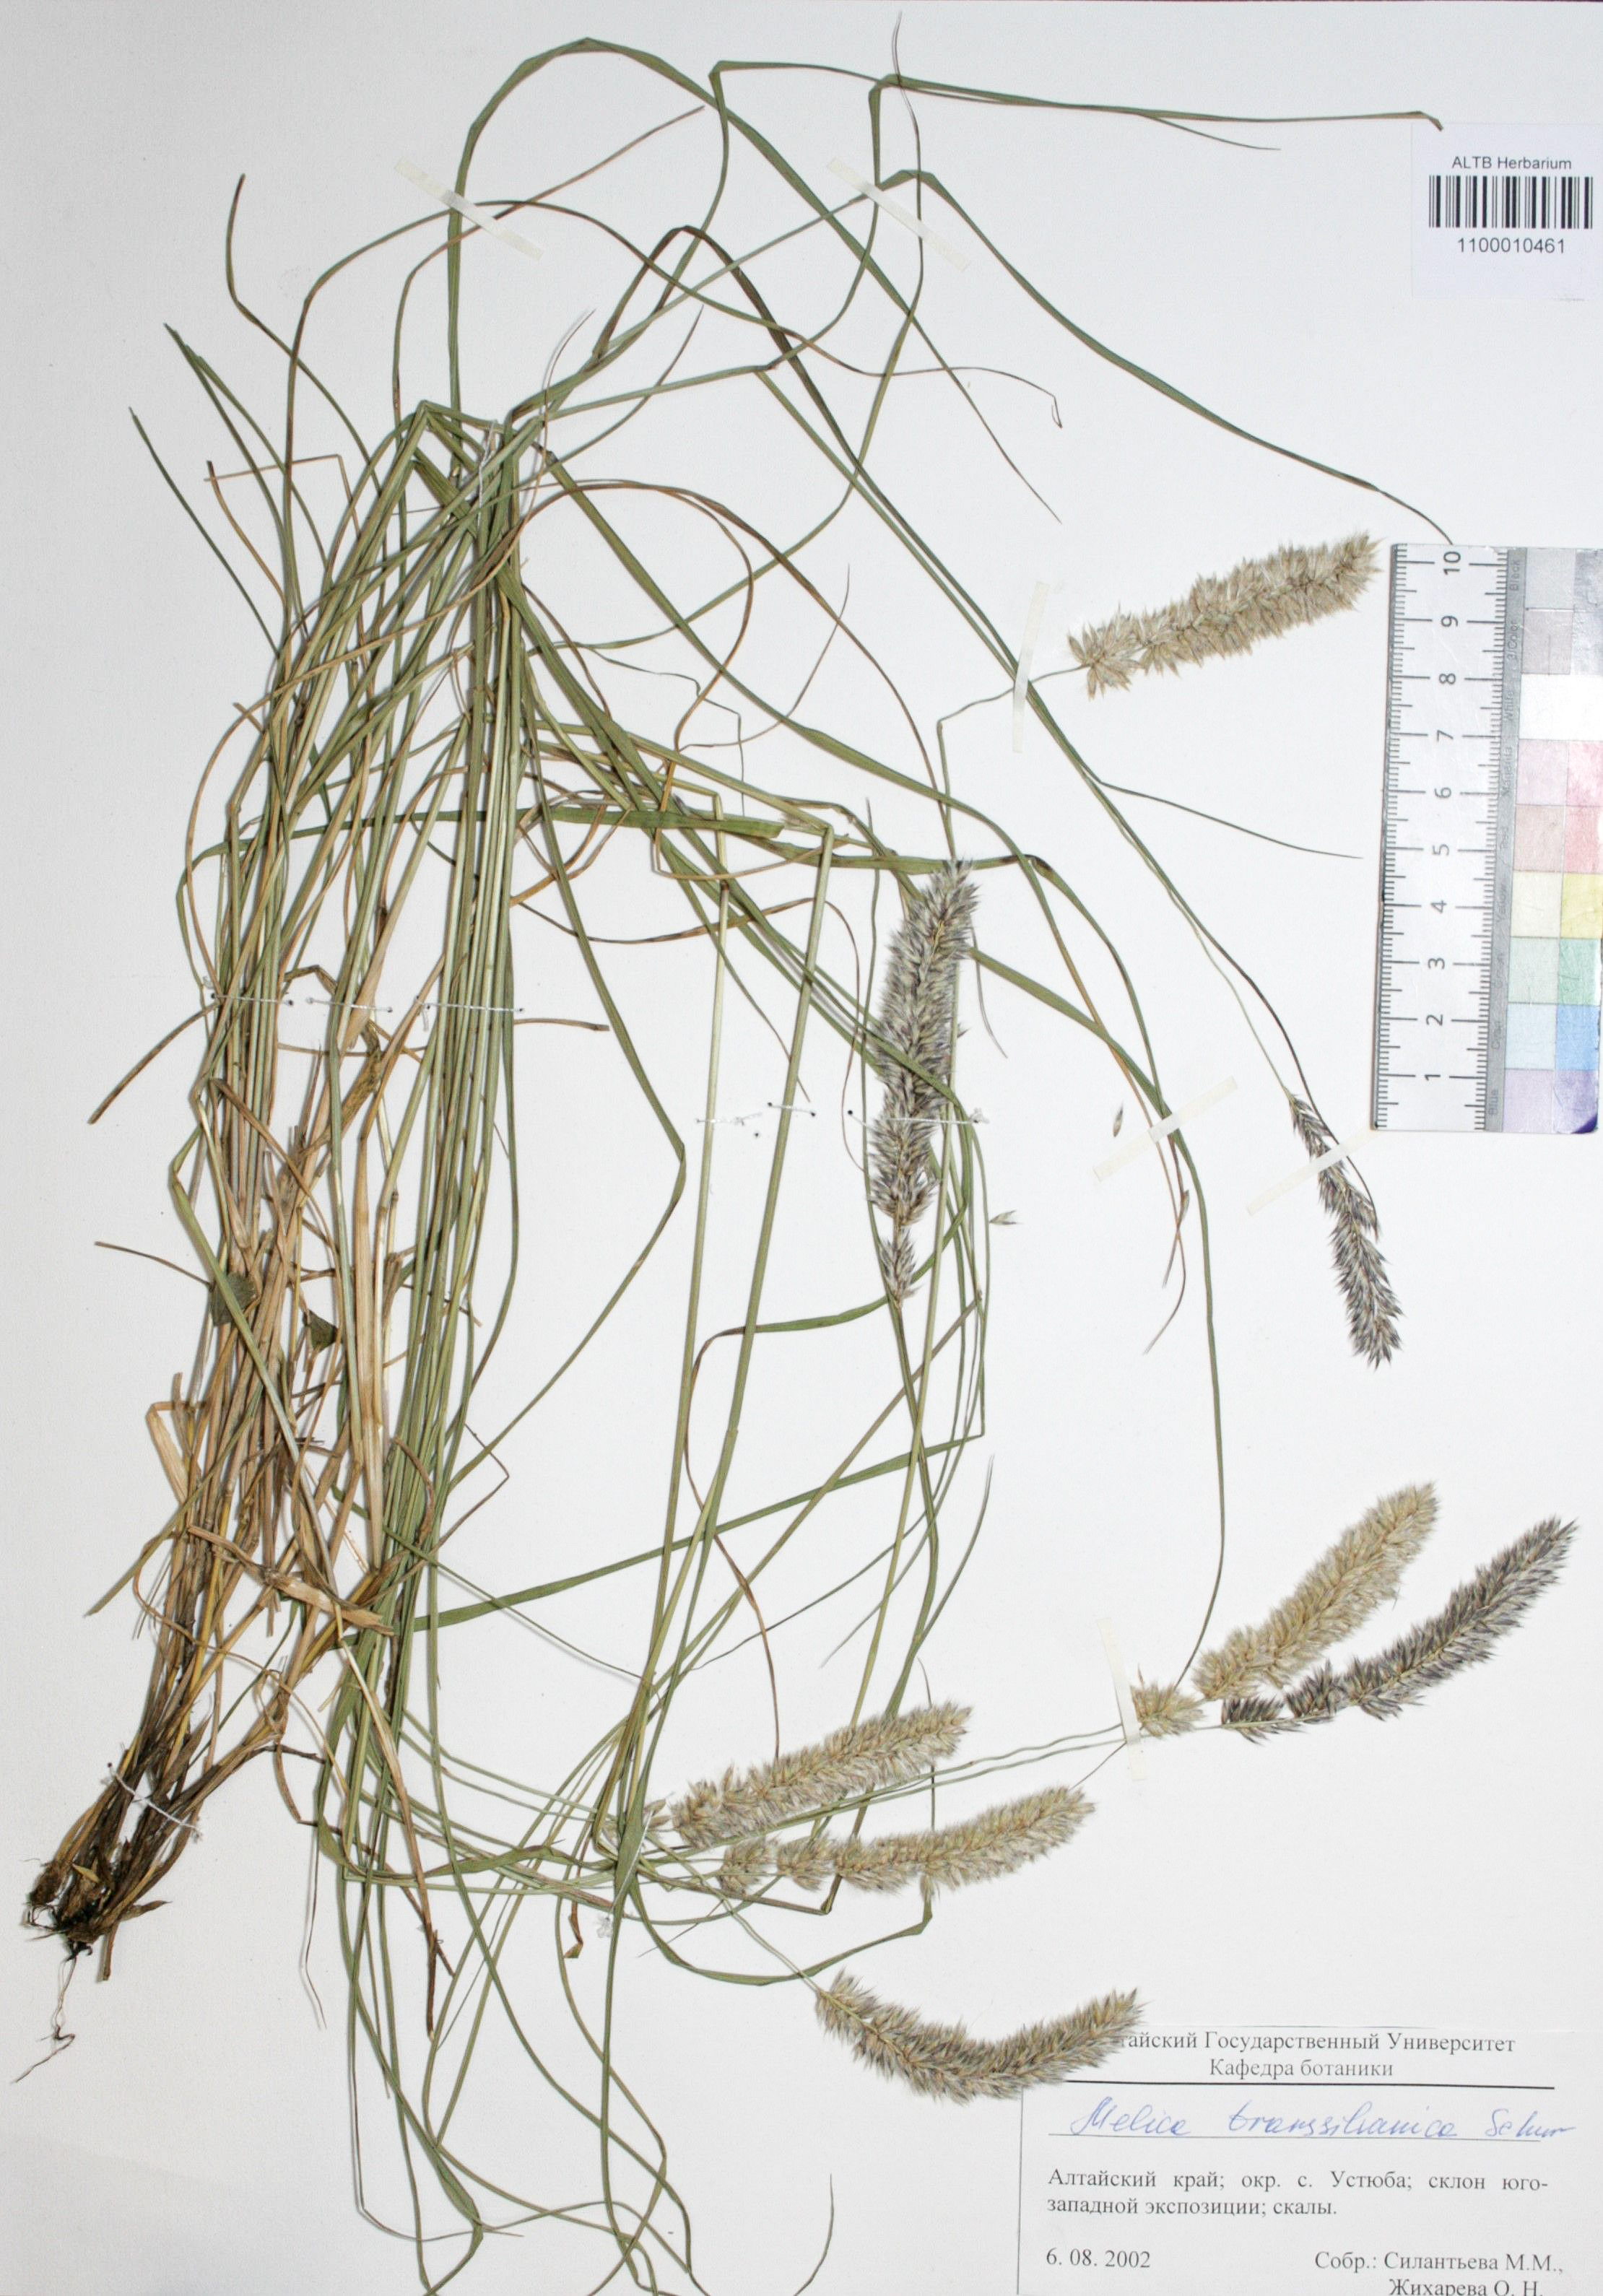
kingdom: Plantae
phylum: Tracheophyta
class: Liliopsida
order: Poales
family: Poaceae
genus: Melica
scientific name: Melica transsilvanica
